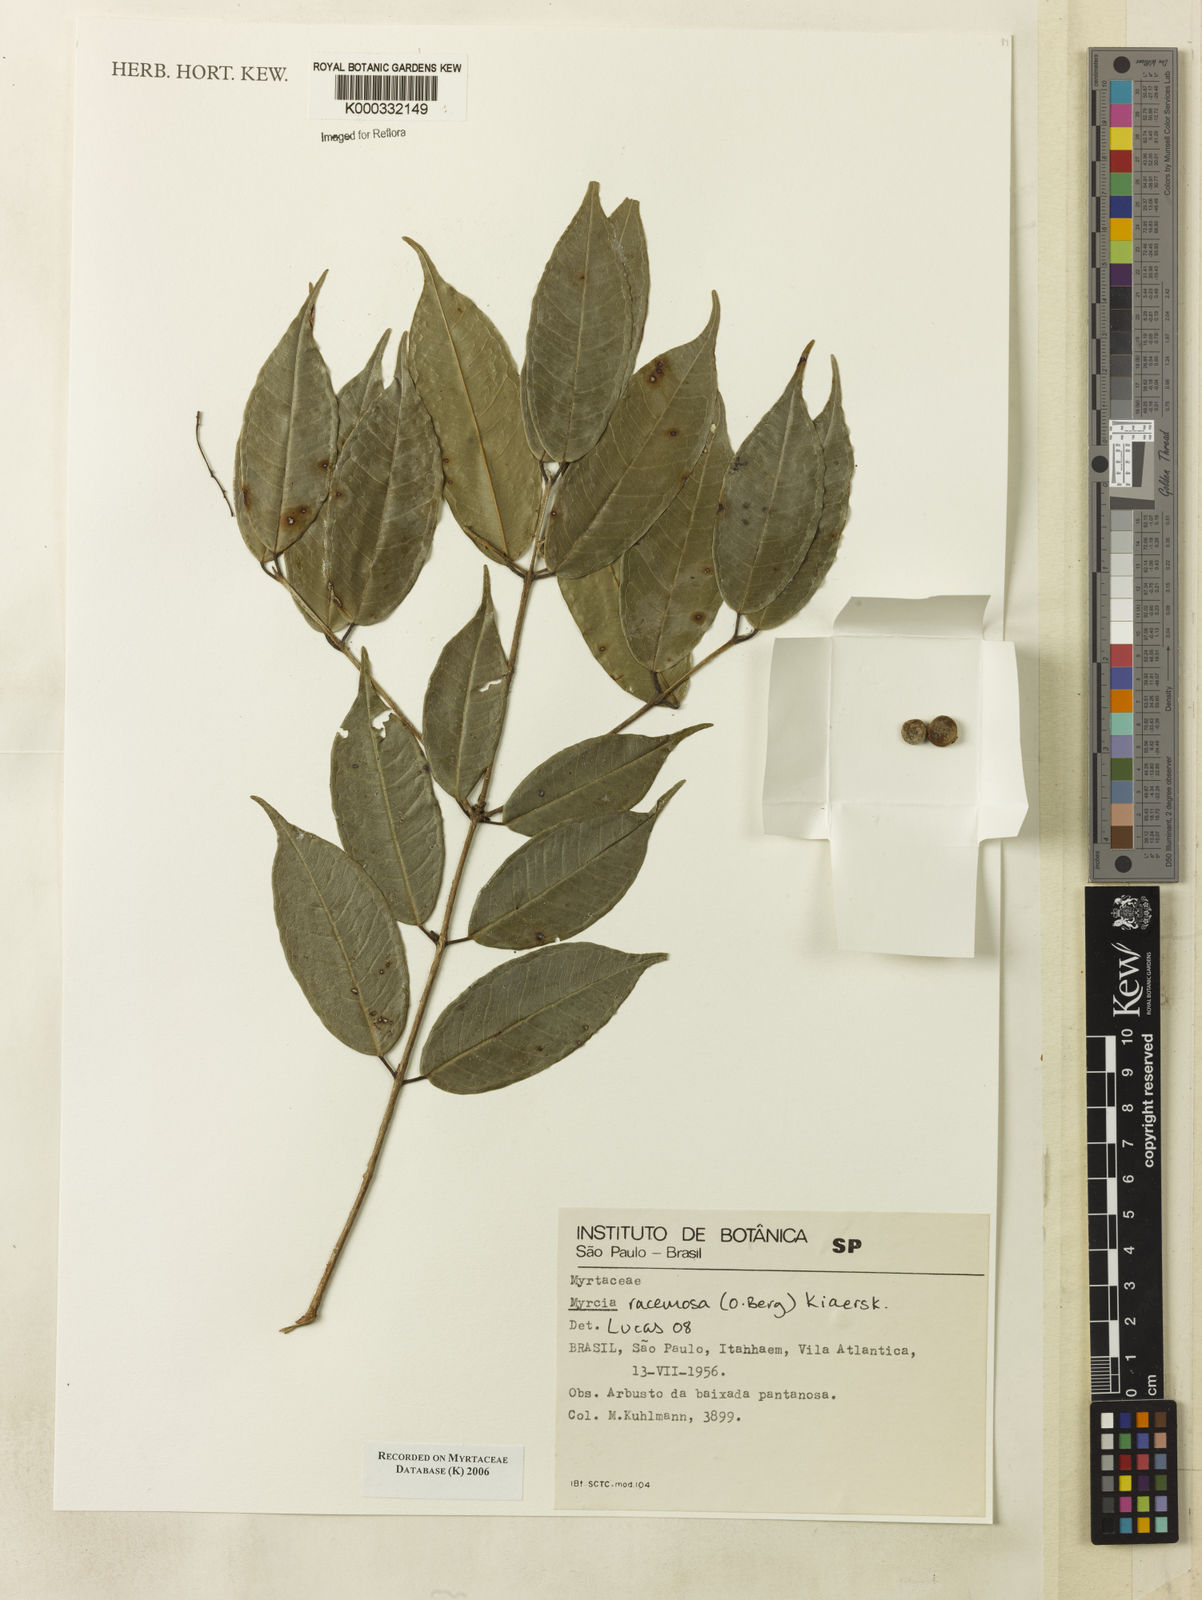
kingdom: Plantae
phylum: Tracheophyta
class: Magnoliopsida
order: Myrtales
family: Myrtaceae
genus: Myrcia
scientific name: Myrcia
